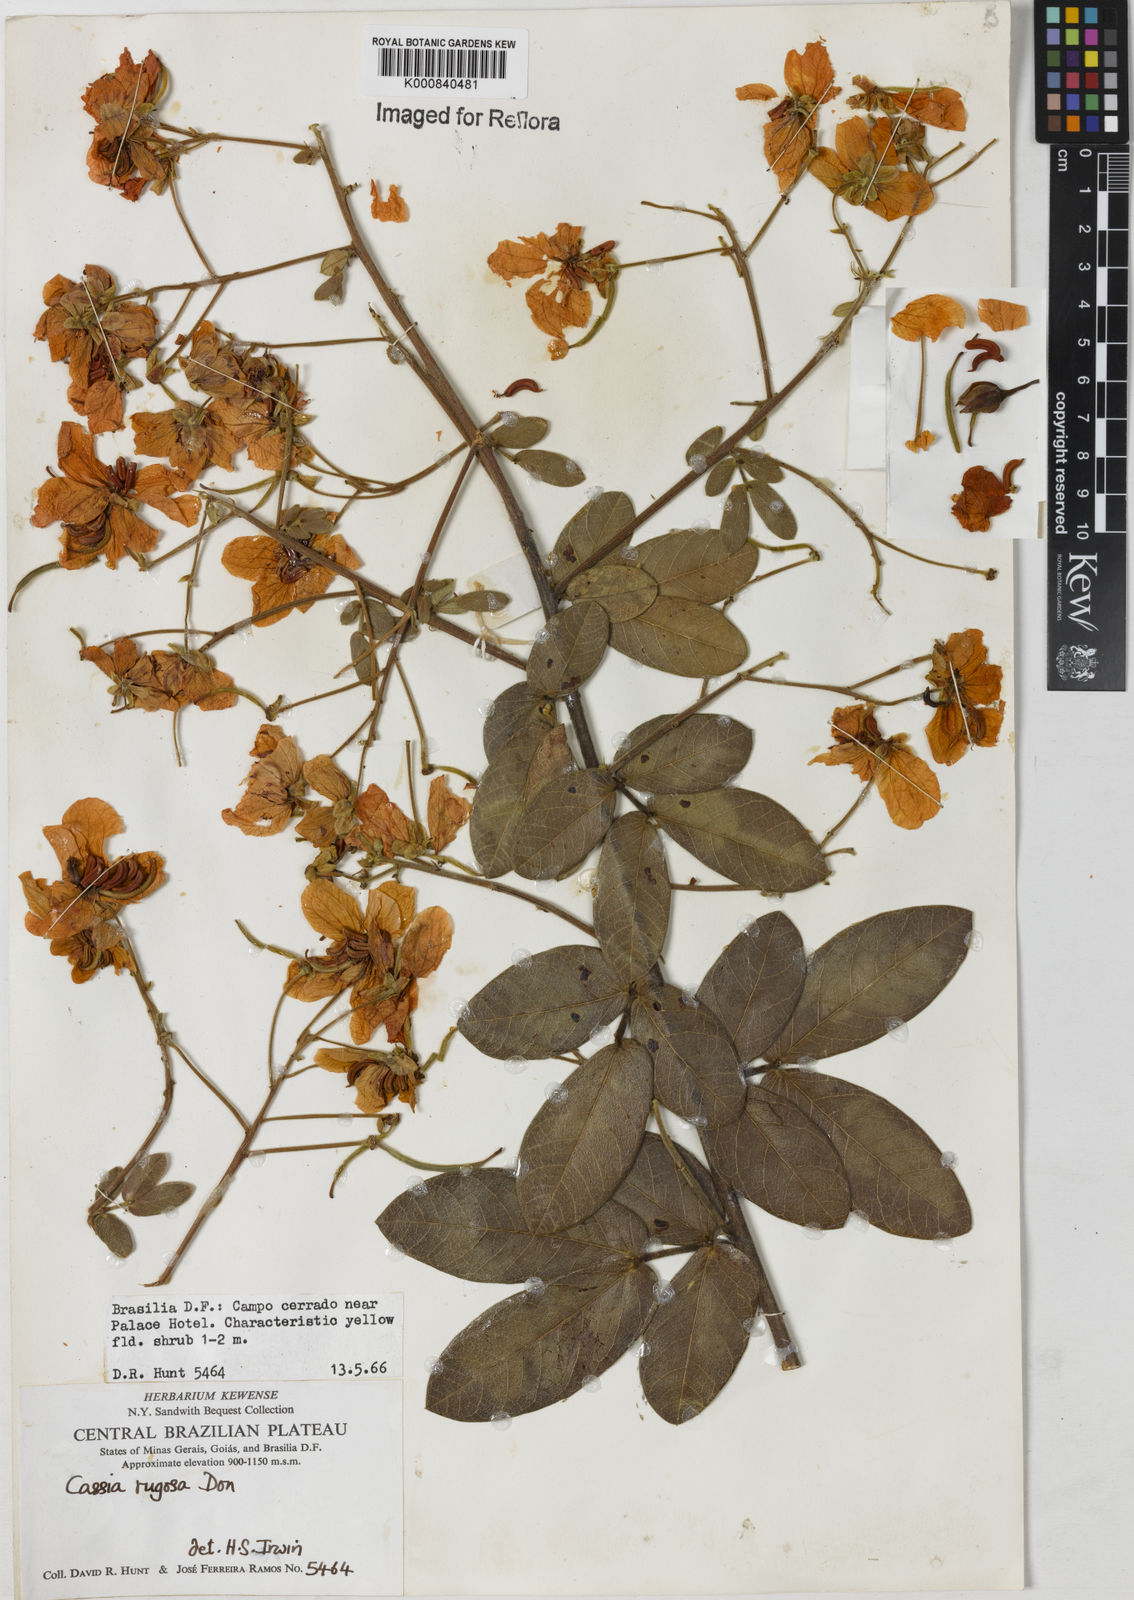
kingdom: Plantae
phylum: Tracheophyta
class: Magnoliopsida
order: Fabales
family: Fabaceae
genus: Senna
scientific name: Senna rugosa
